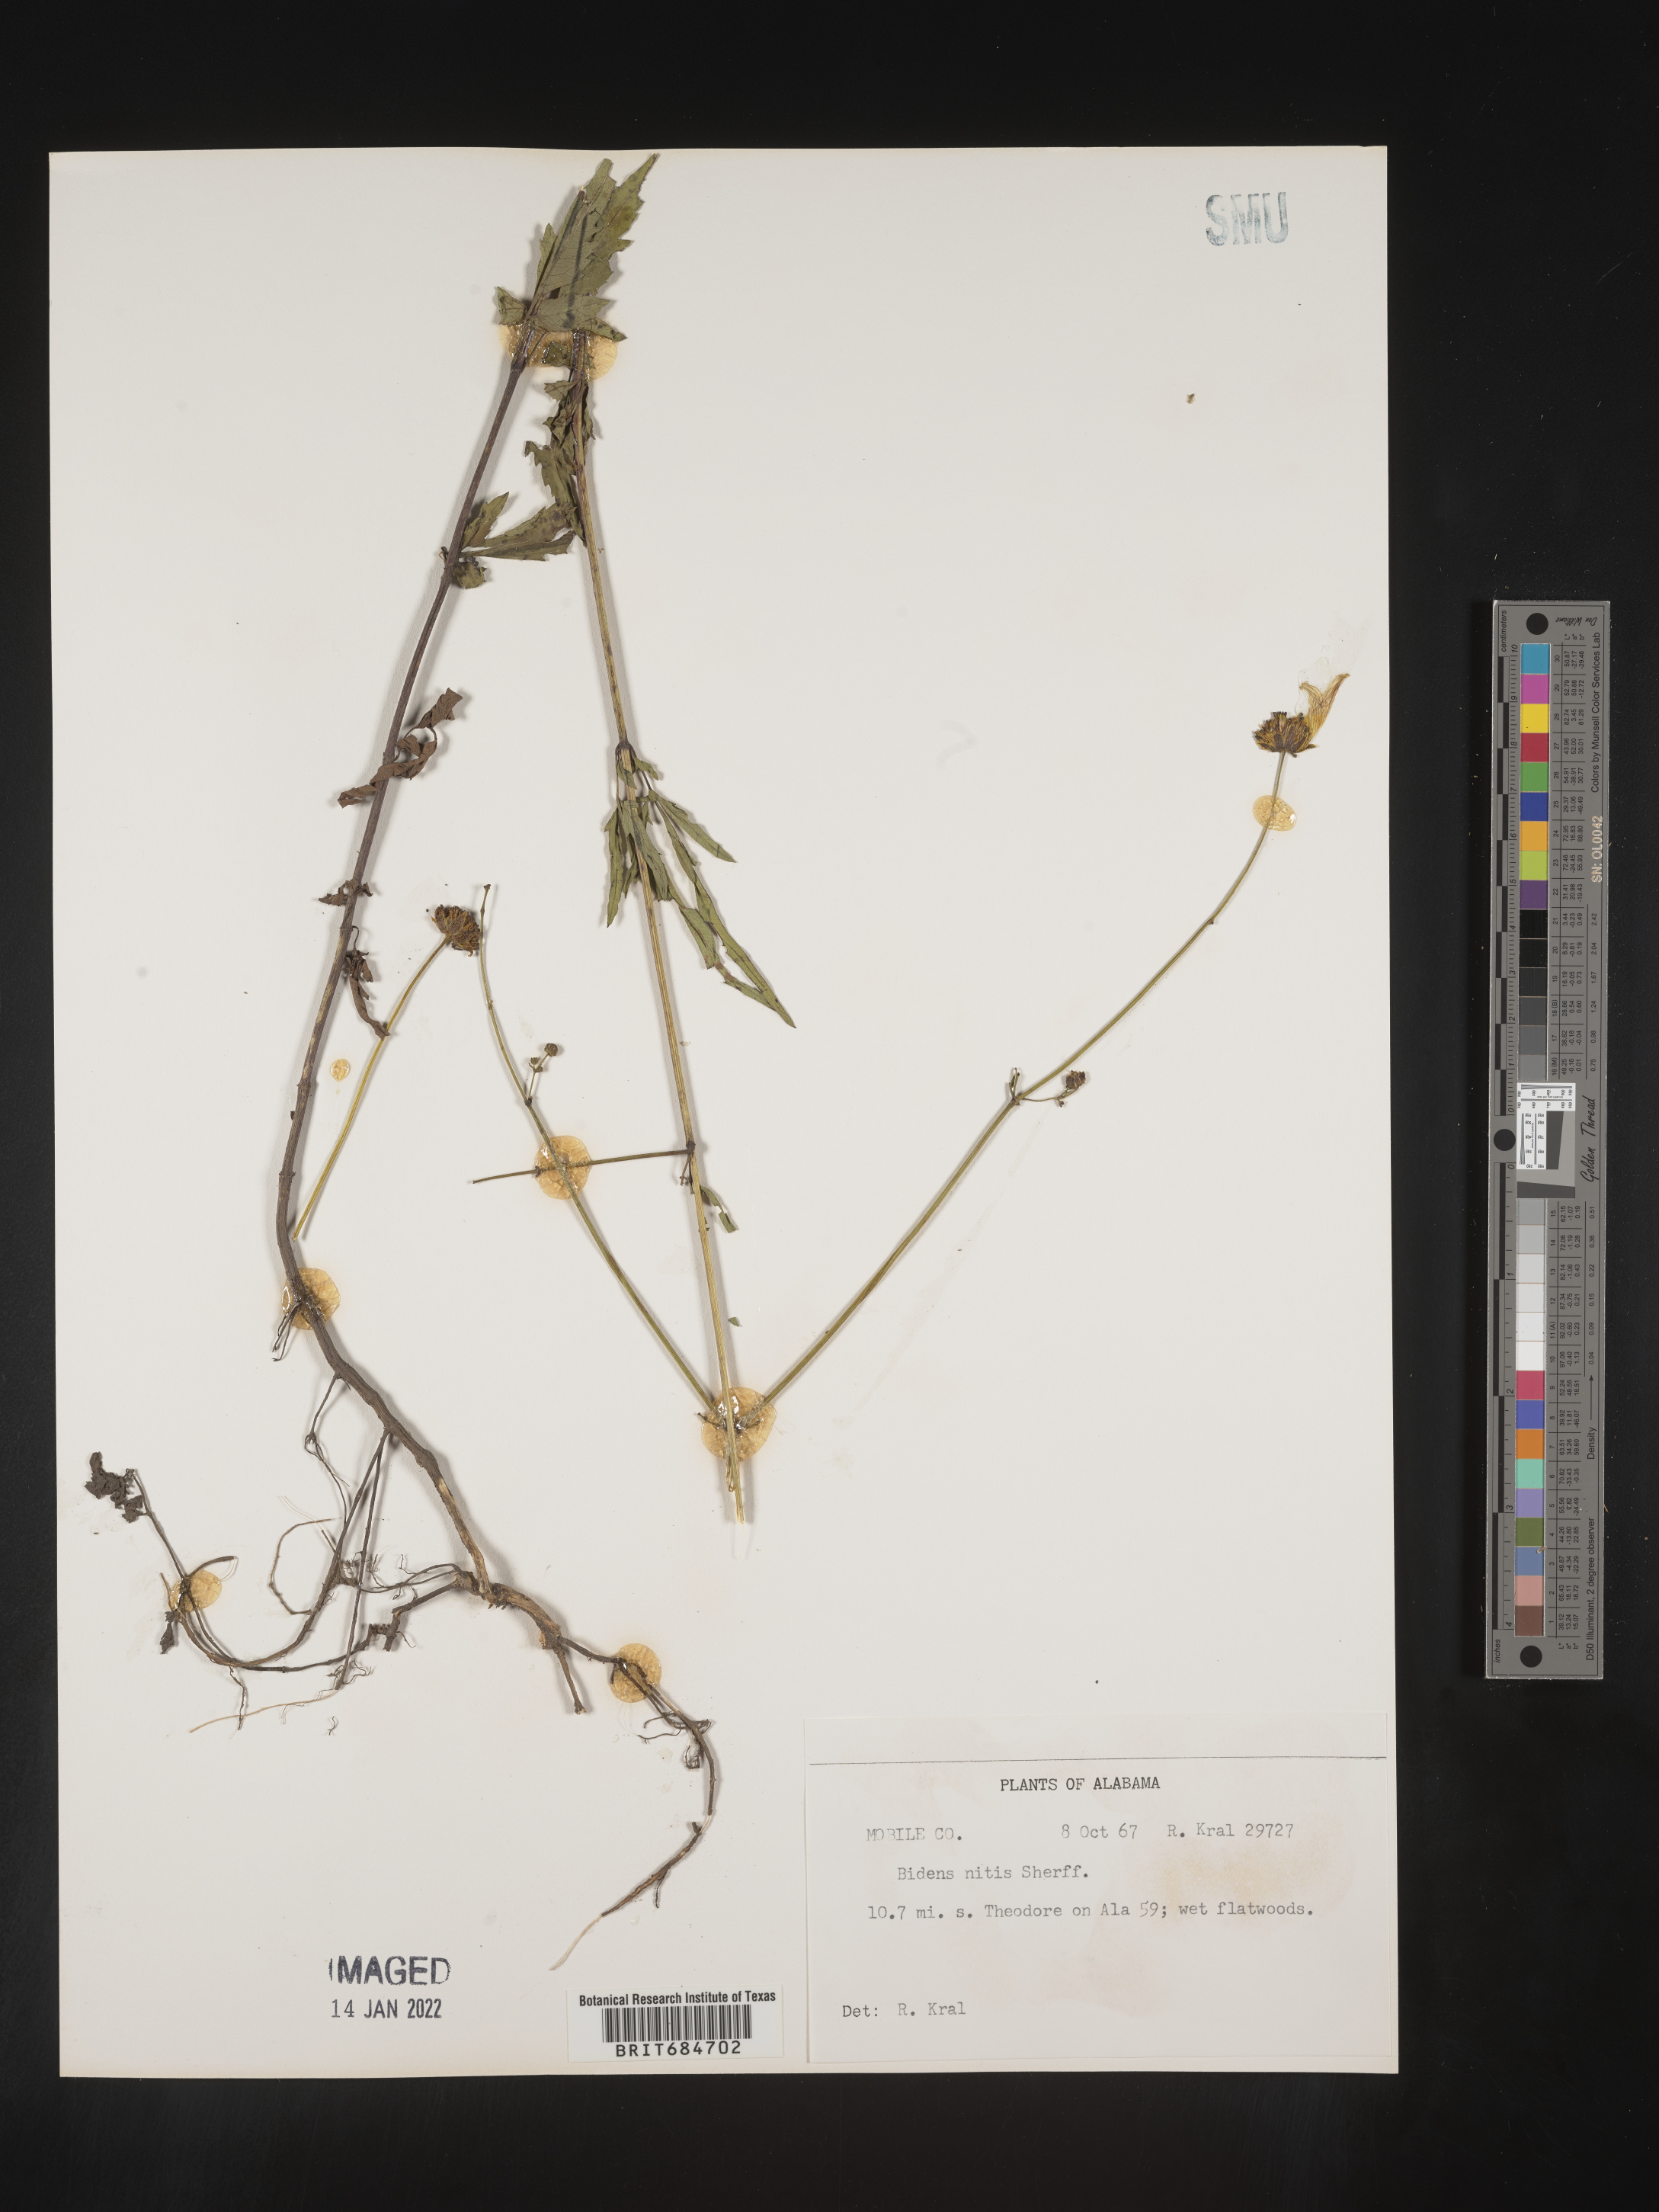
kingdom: Plantae
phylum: Tracheophyta
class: Magnoliopsida
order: Asterales
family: Asteraceae
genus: Bidens
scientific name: Bidens mitis
